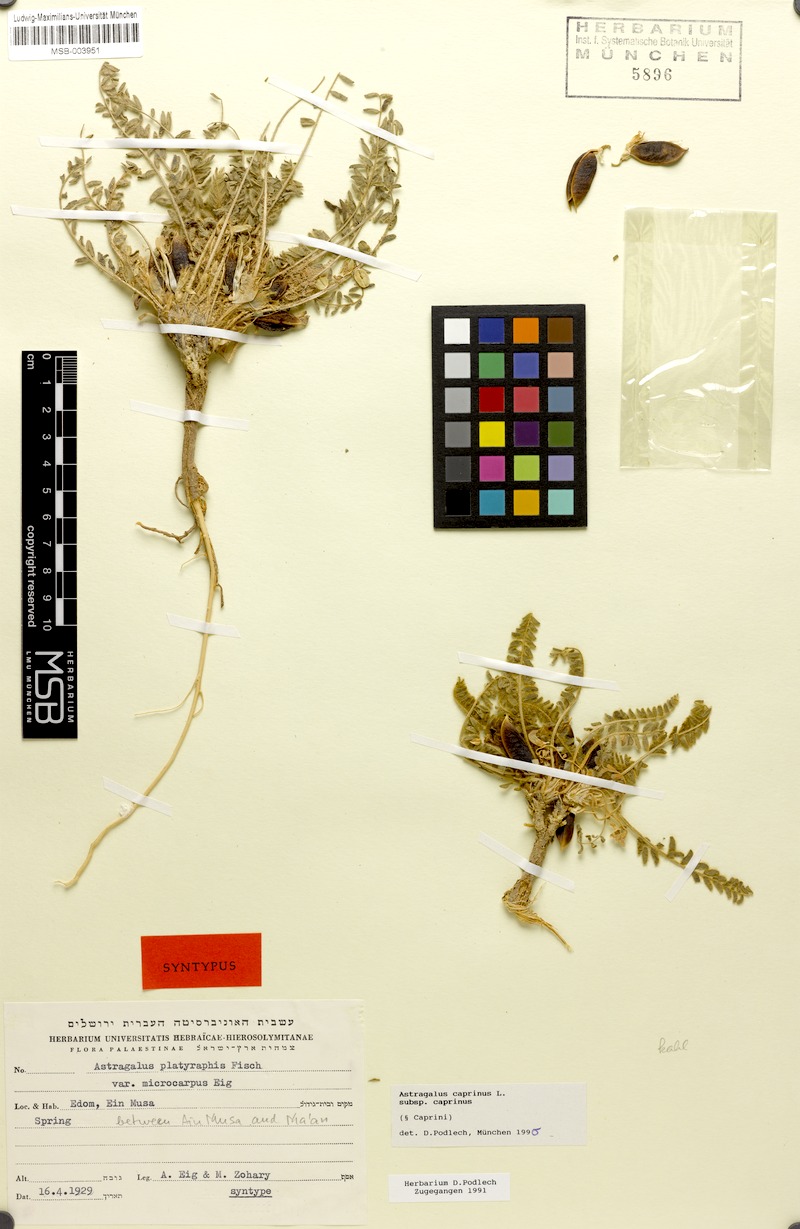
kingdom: Plantae
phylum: Tracheophyta
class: Magnoliopsida
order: Fabales
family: Fabaceae
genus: Astragalus
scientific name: Astragalus caprinus
